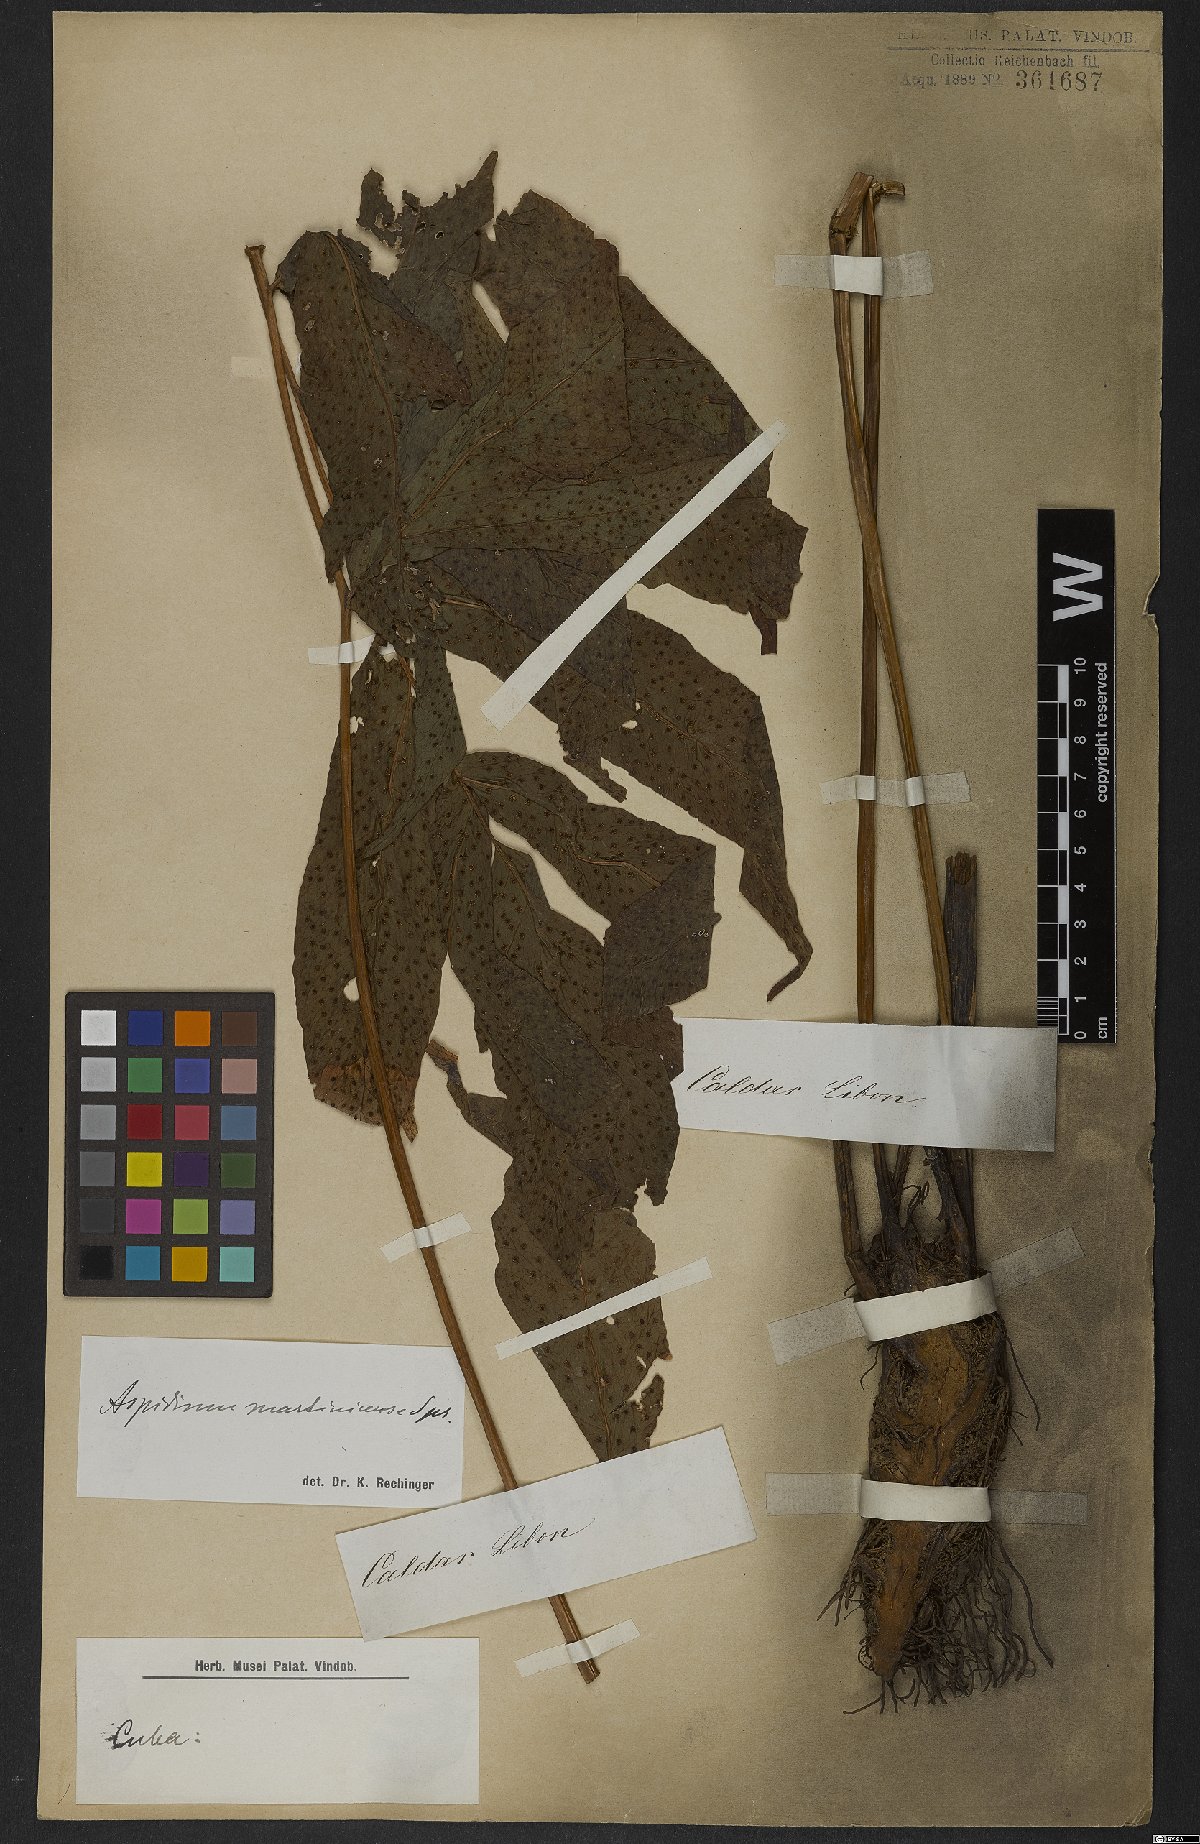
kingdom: Plantae
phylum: Tracheophyta
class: Polypodiopsida
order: Polypodiales
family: Tectariaceae
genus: Tectaria
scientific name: Tectaria incisa
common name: Incised halberd fern
